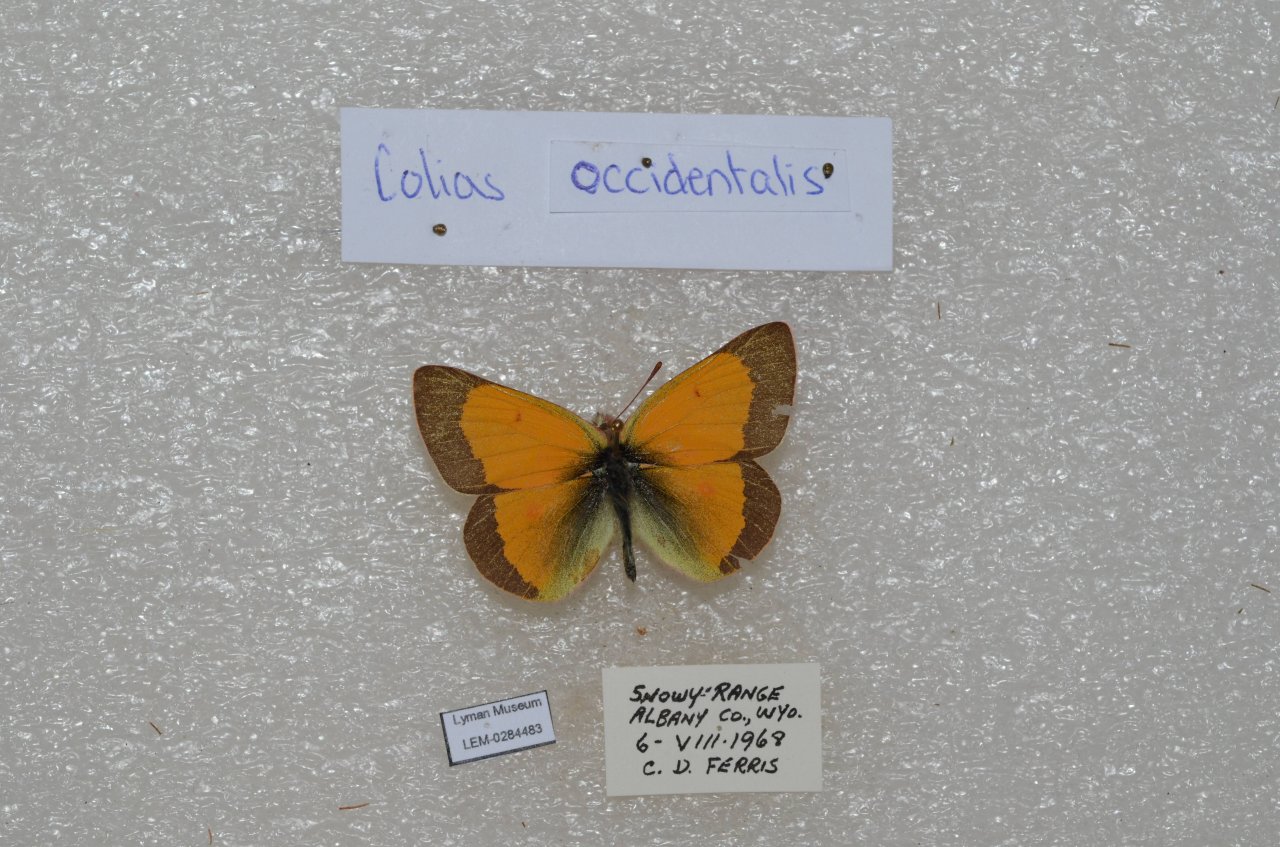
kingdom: Animalia
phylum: Arthropoda
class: Insecta
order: Lepidoptera
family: Pieridae
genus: Colias
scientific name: Colias occidentalis
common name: Western Sulphur
